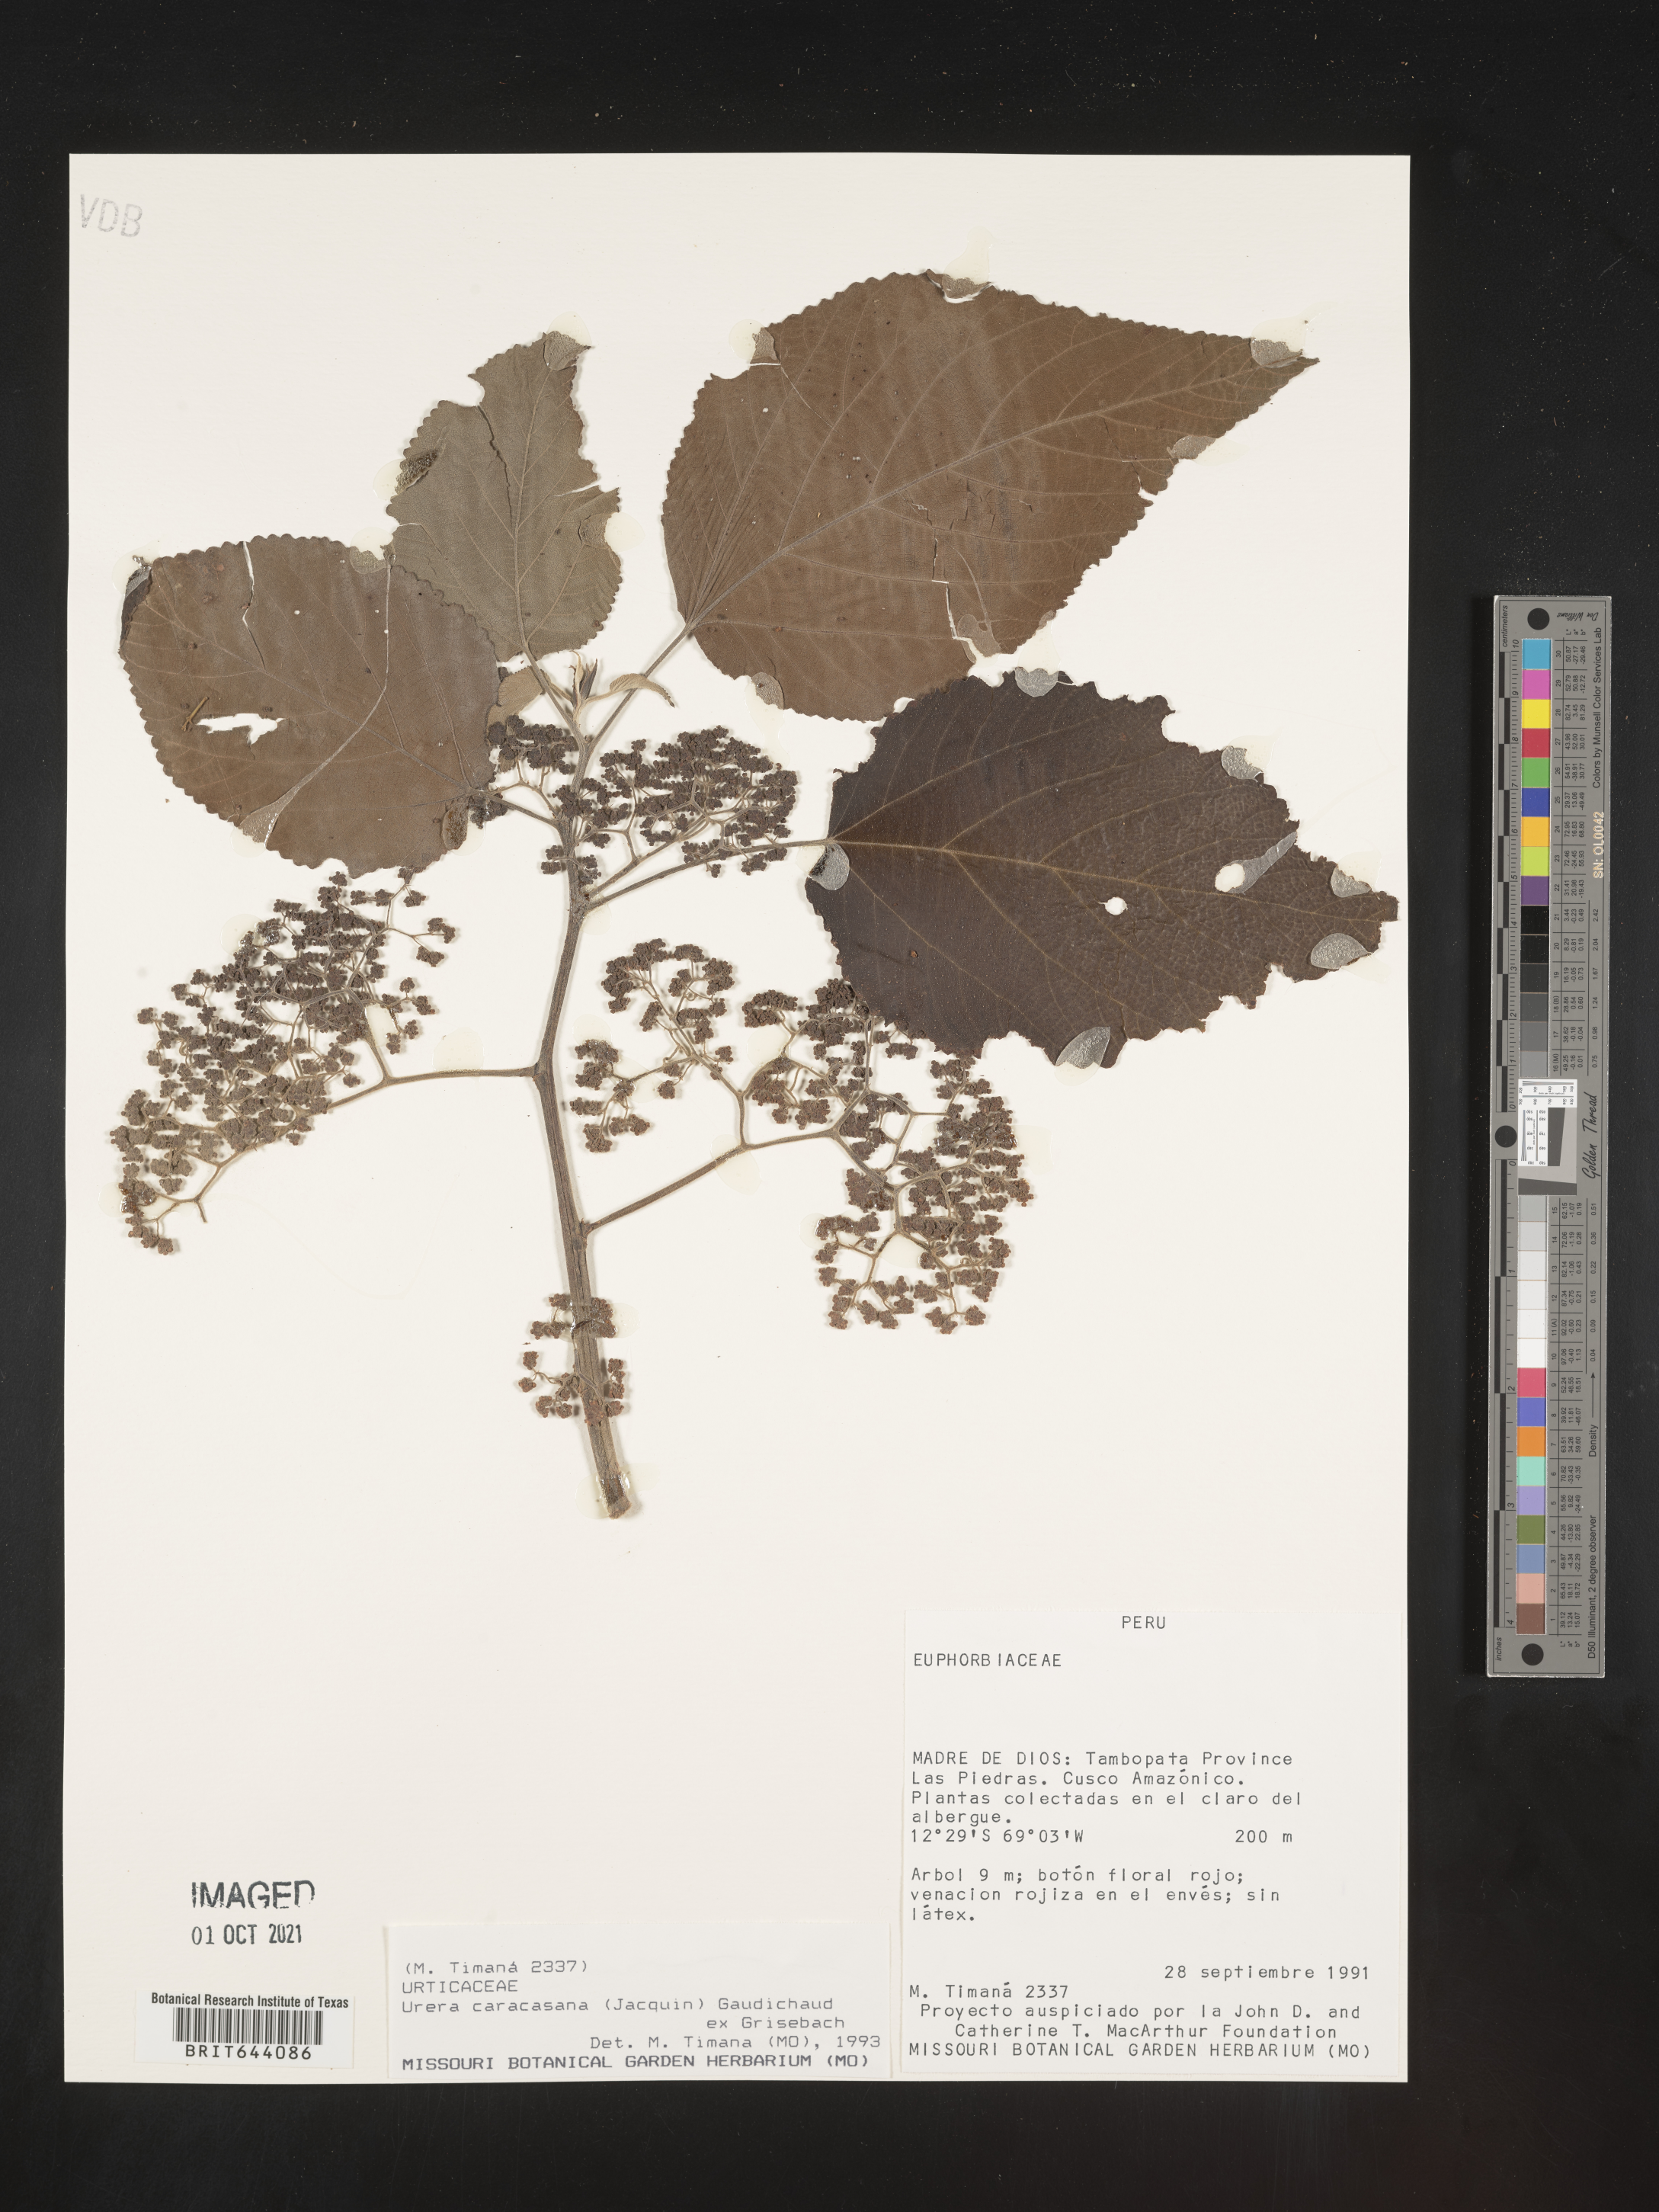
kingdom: Plantae
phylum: Tracheophyta
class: Magnoliopsida
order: Rosales
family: Urticaceae
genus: Urera
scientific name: Urera
